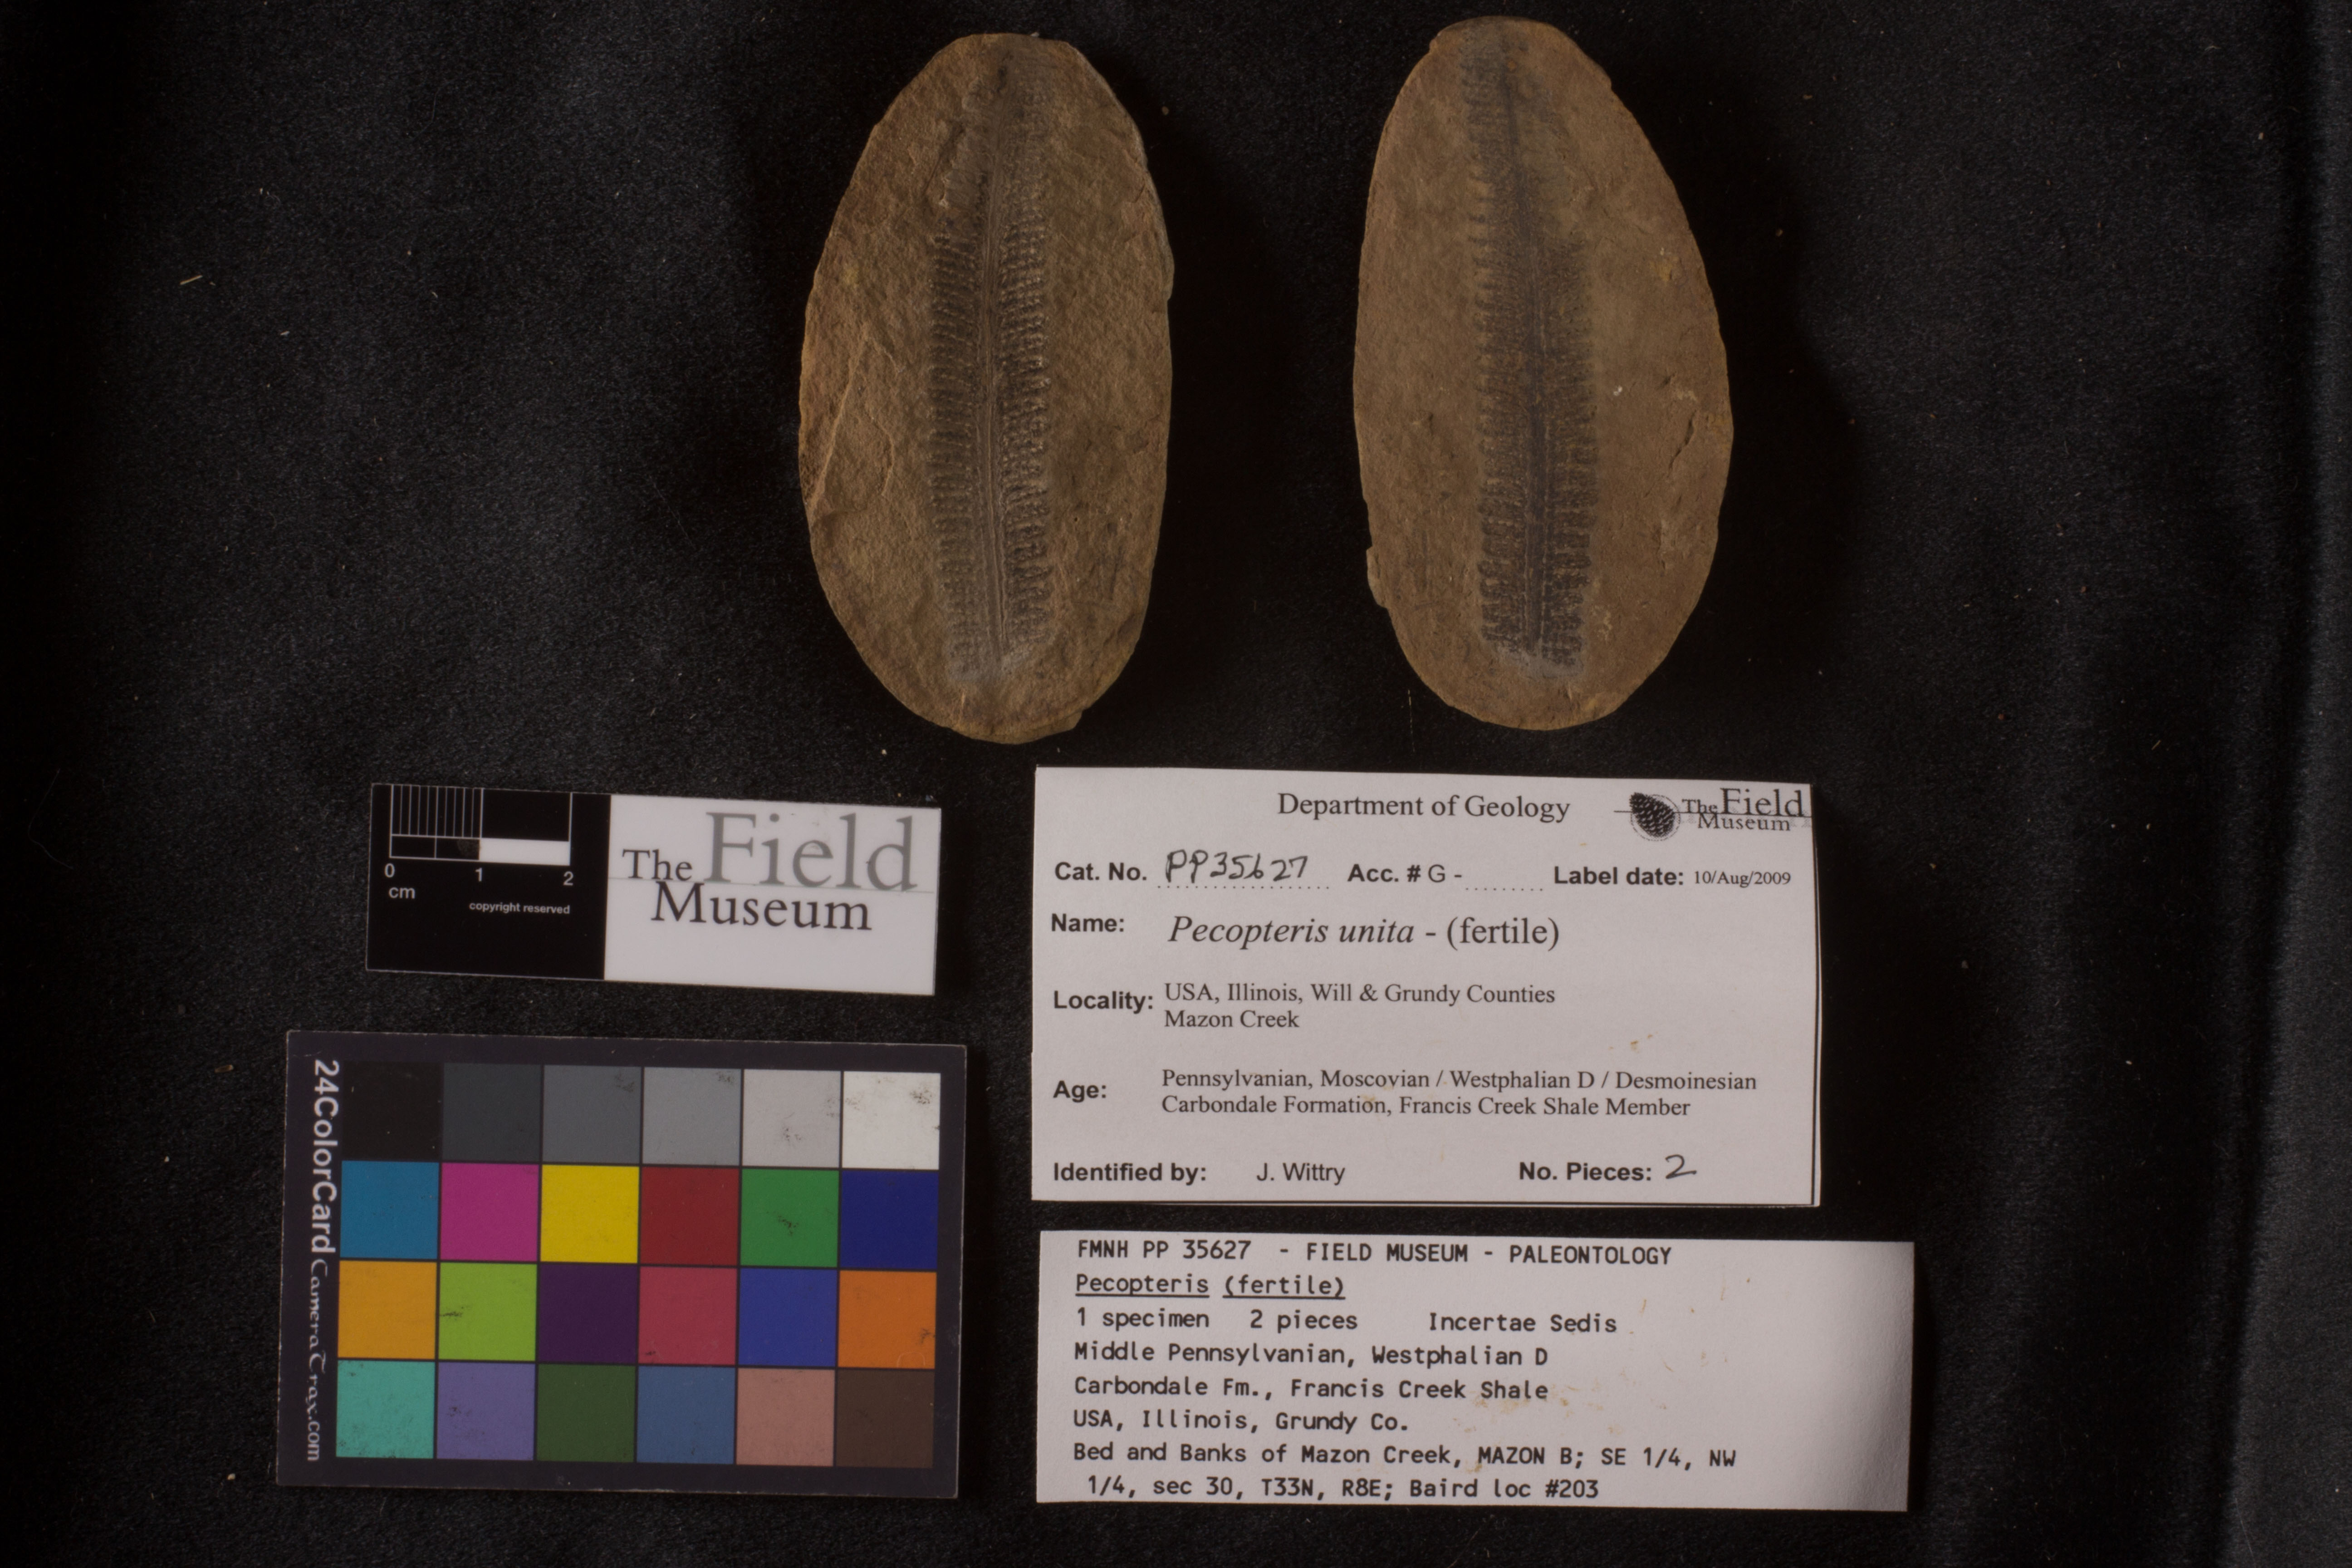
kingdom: Plantae
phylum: Tracheophyta
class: Polypodiopsida
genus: Diplazites
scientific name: Diplazites
